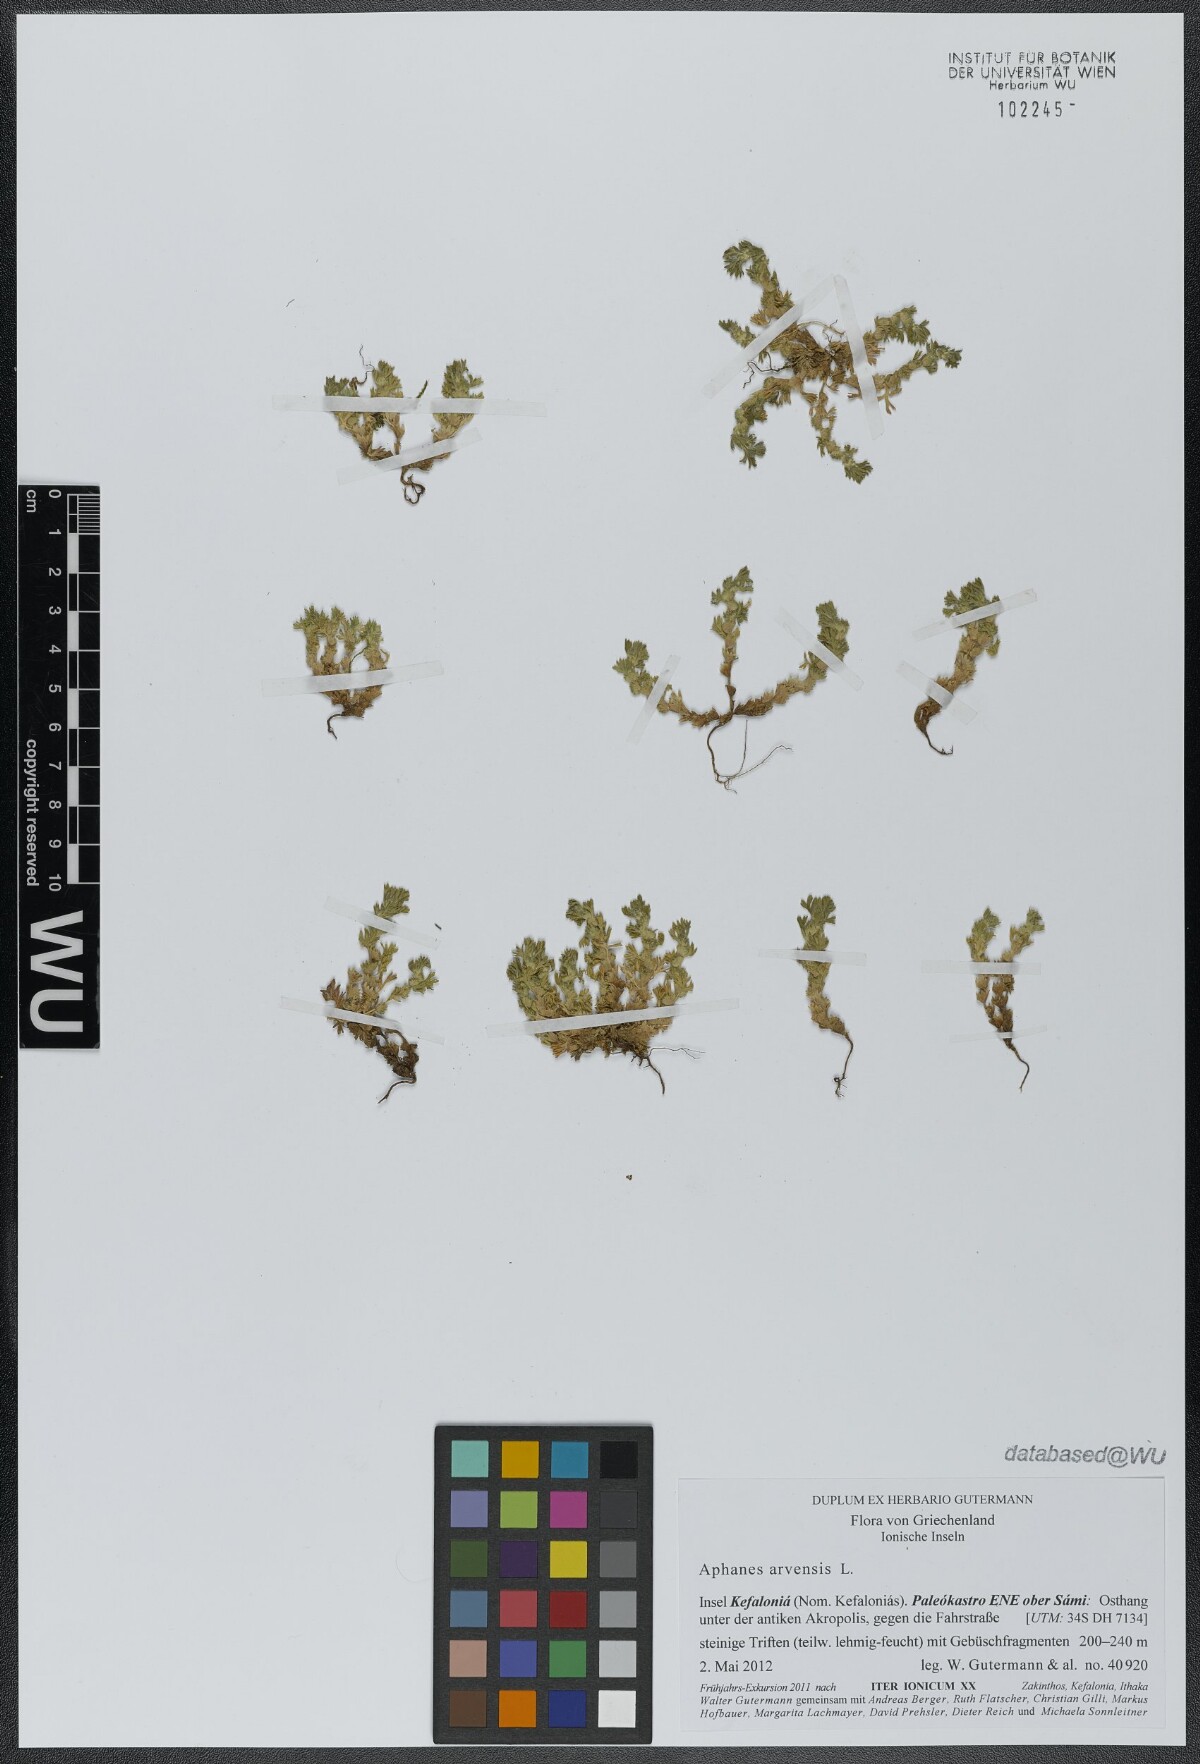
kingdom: Plantae
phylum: Tracheophyta
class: Magnoliopsida
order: Rosales
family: Rosaceae
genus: Aphanes
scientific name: Aphanes arvensis
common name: Parsley-piert
